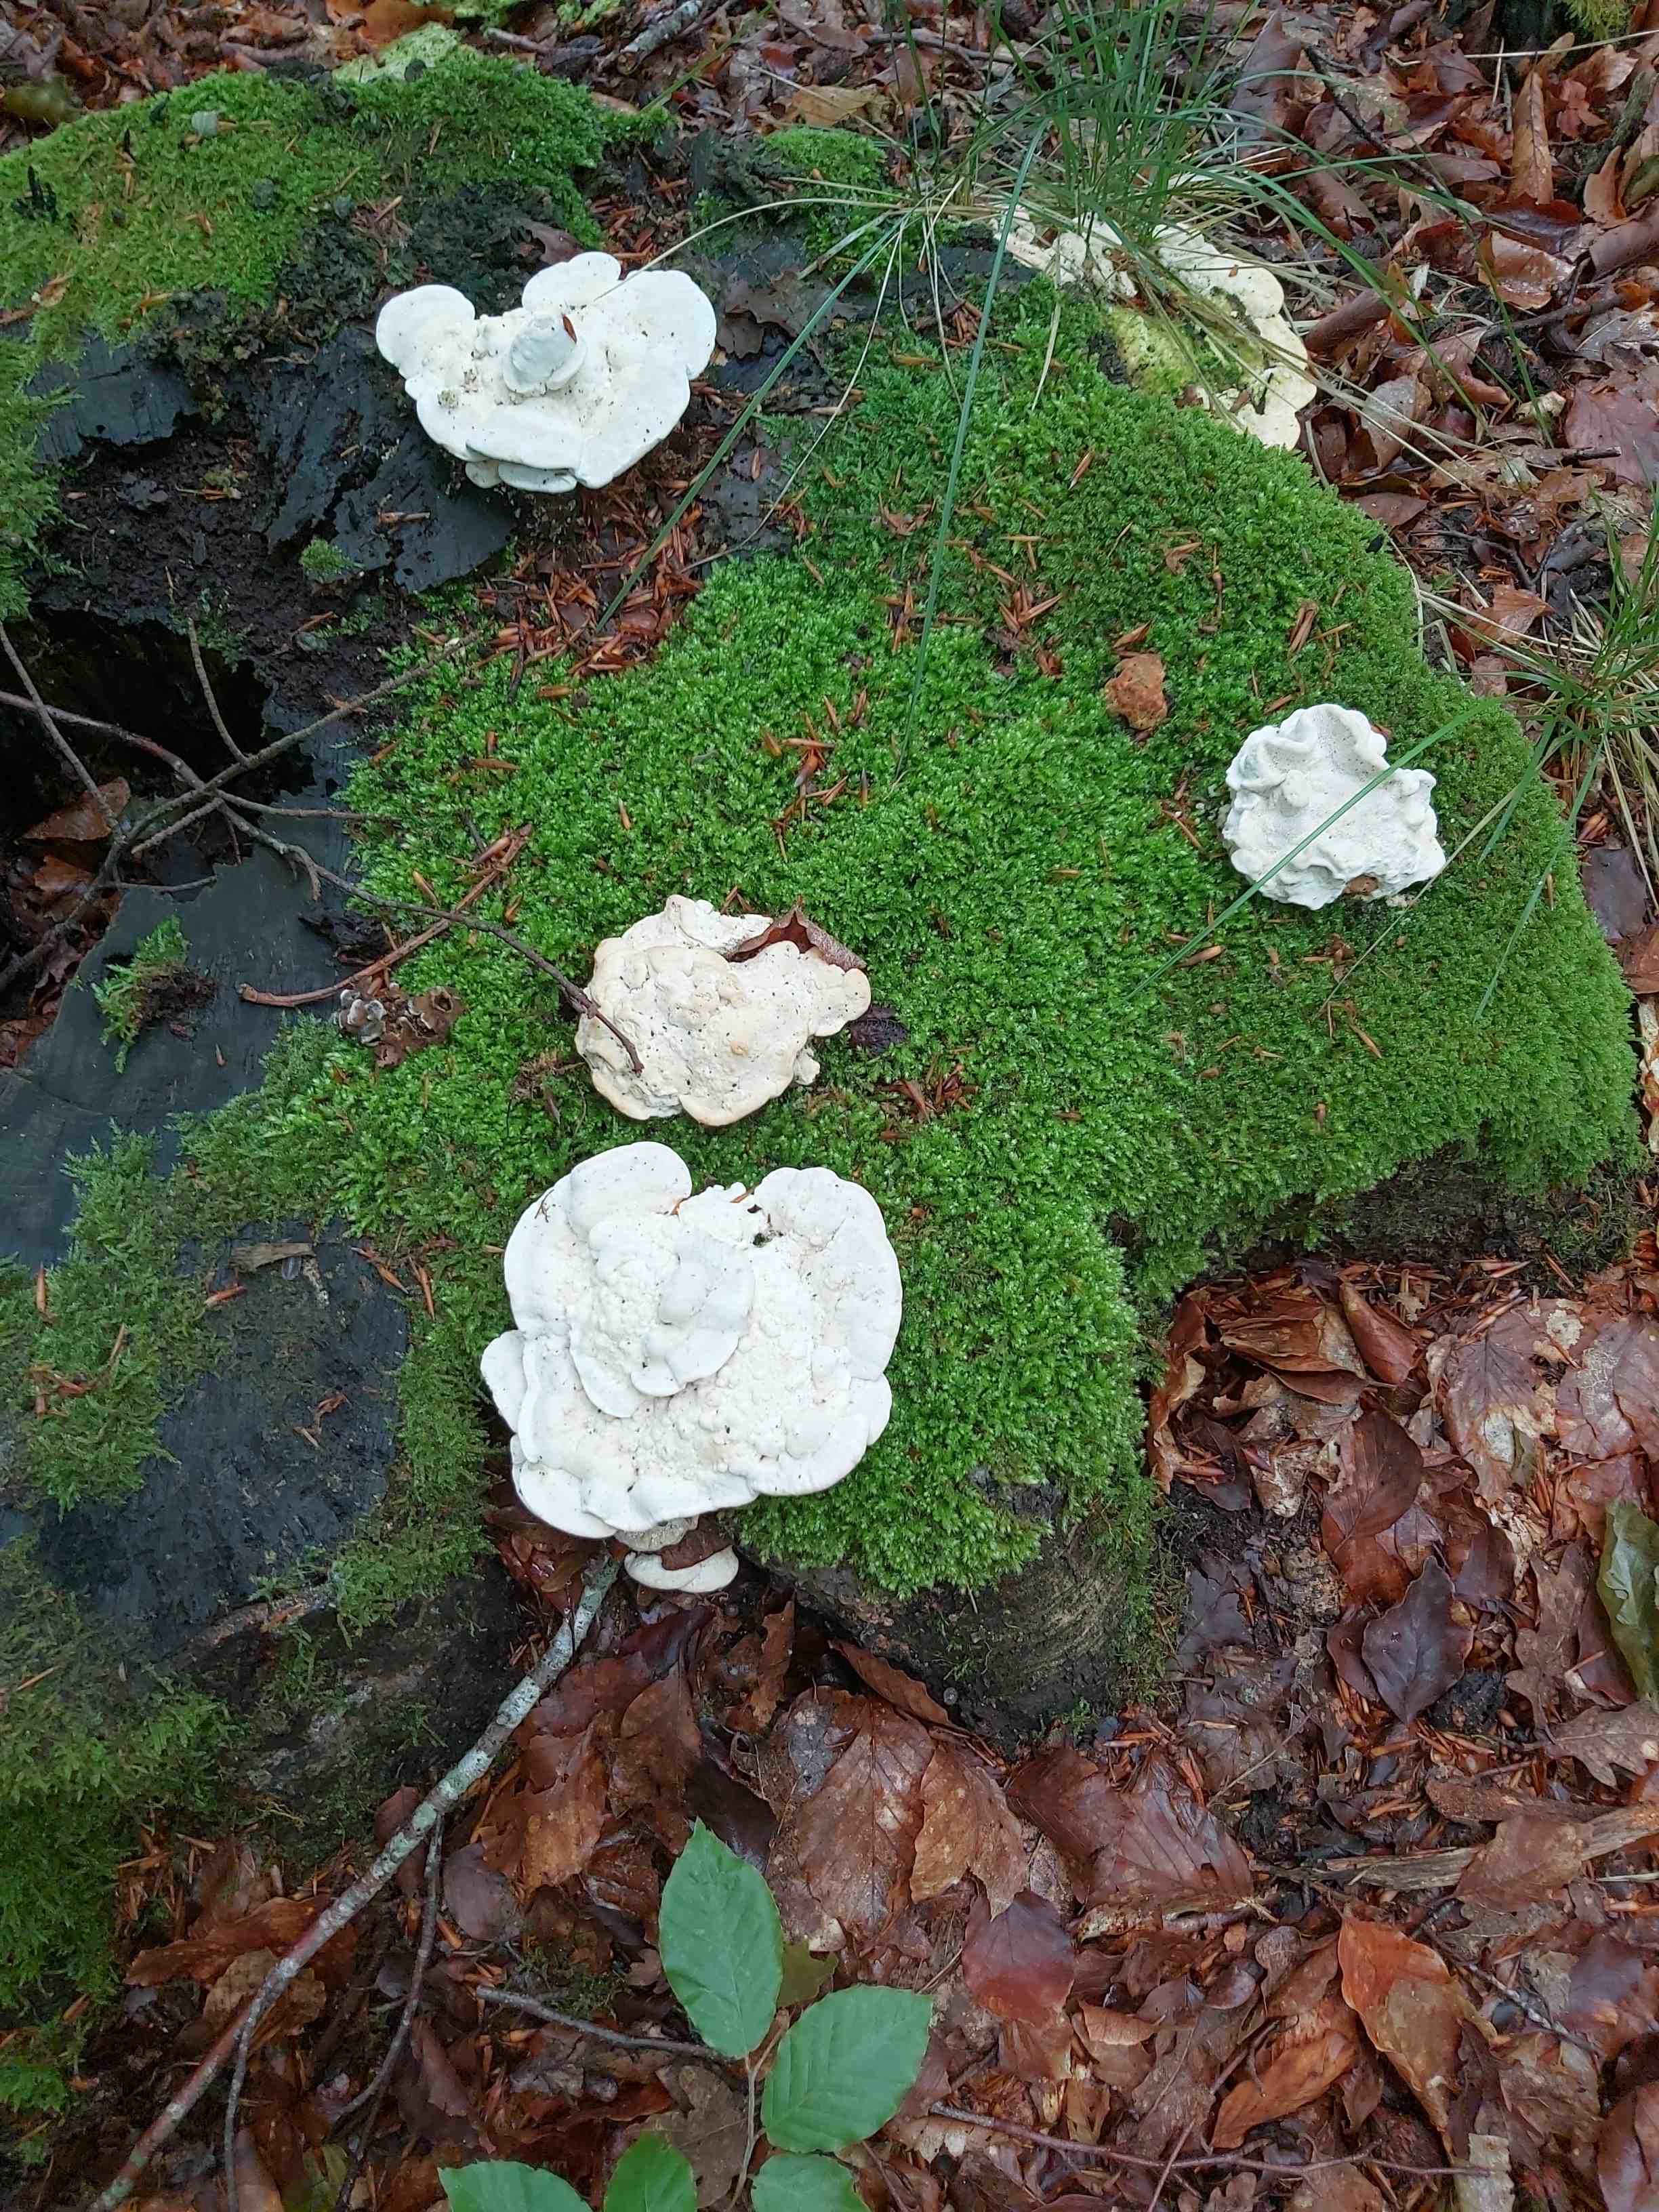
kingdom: Fungi
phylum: Basidiomycota
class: Agaricomycetes
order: Polyporales
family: Polyporaceae
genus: Trametes
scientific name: Trametes gibbosa
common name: puklet læderporesvamp
